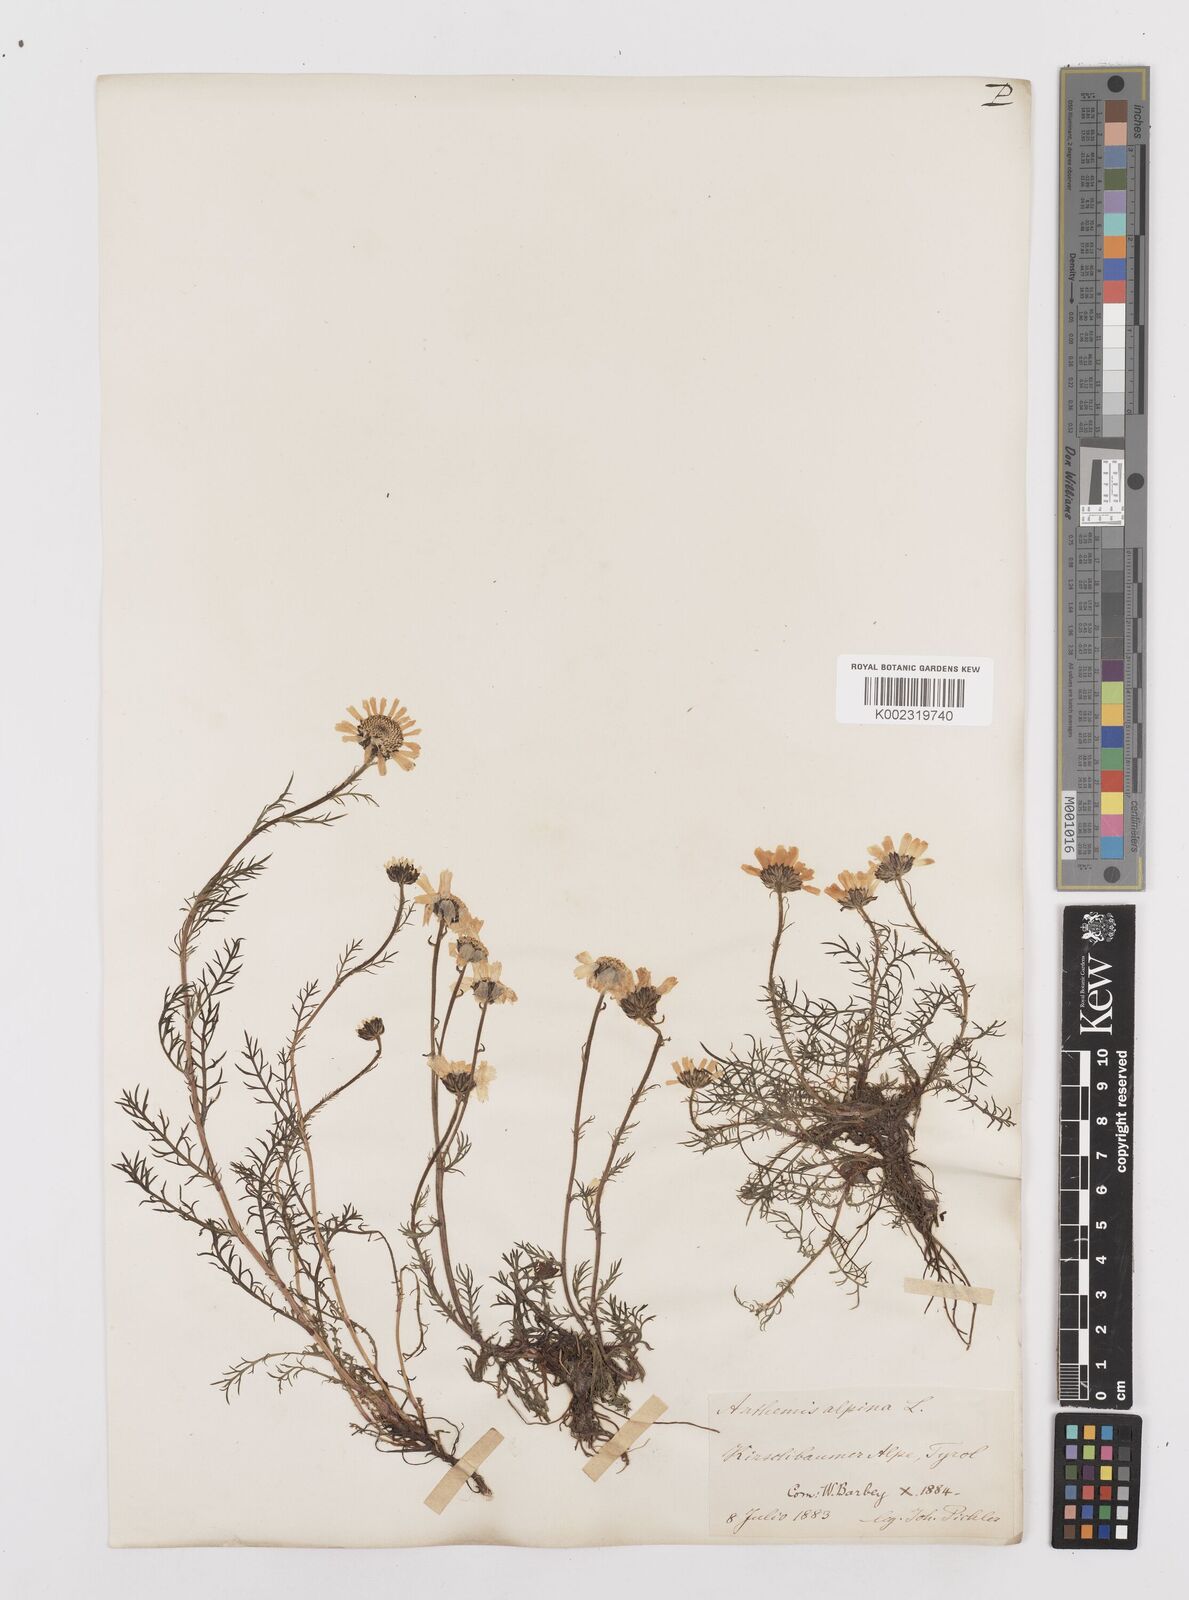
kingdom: Plantae
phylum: Tracheophyta
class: Magnoliopsida
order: Asterales
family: Asteraceae
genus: Achillea
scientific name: Achillea oxyloba
